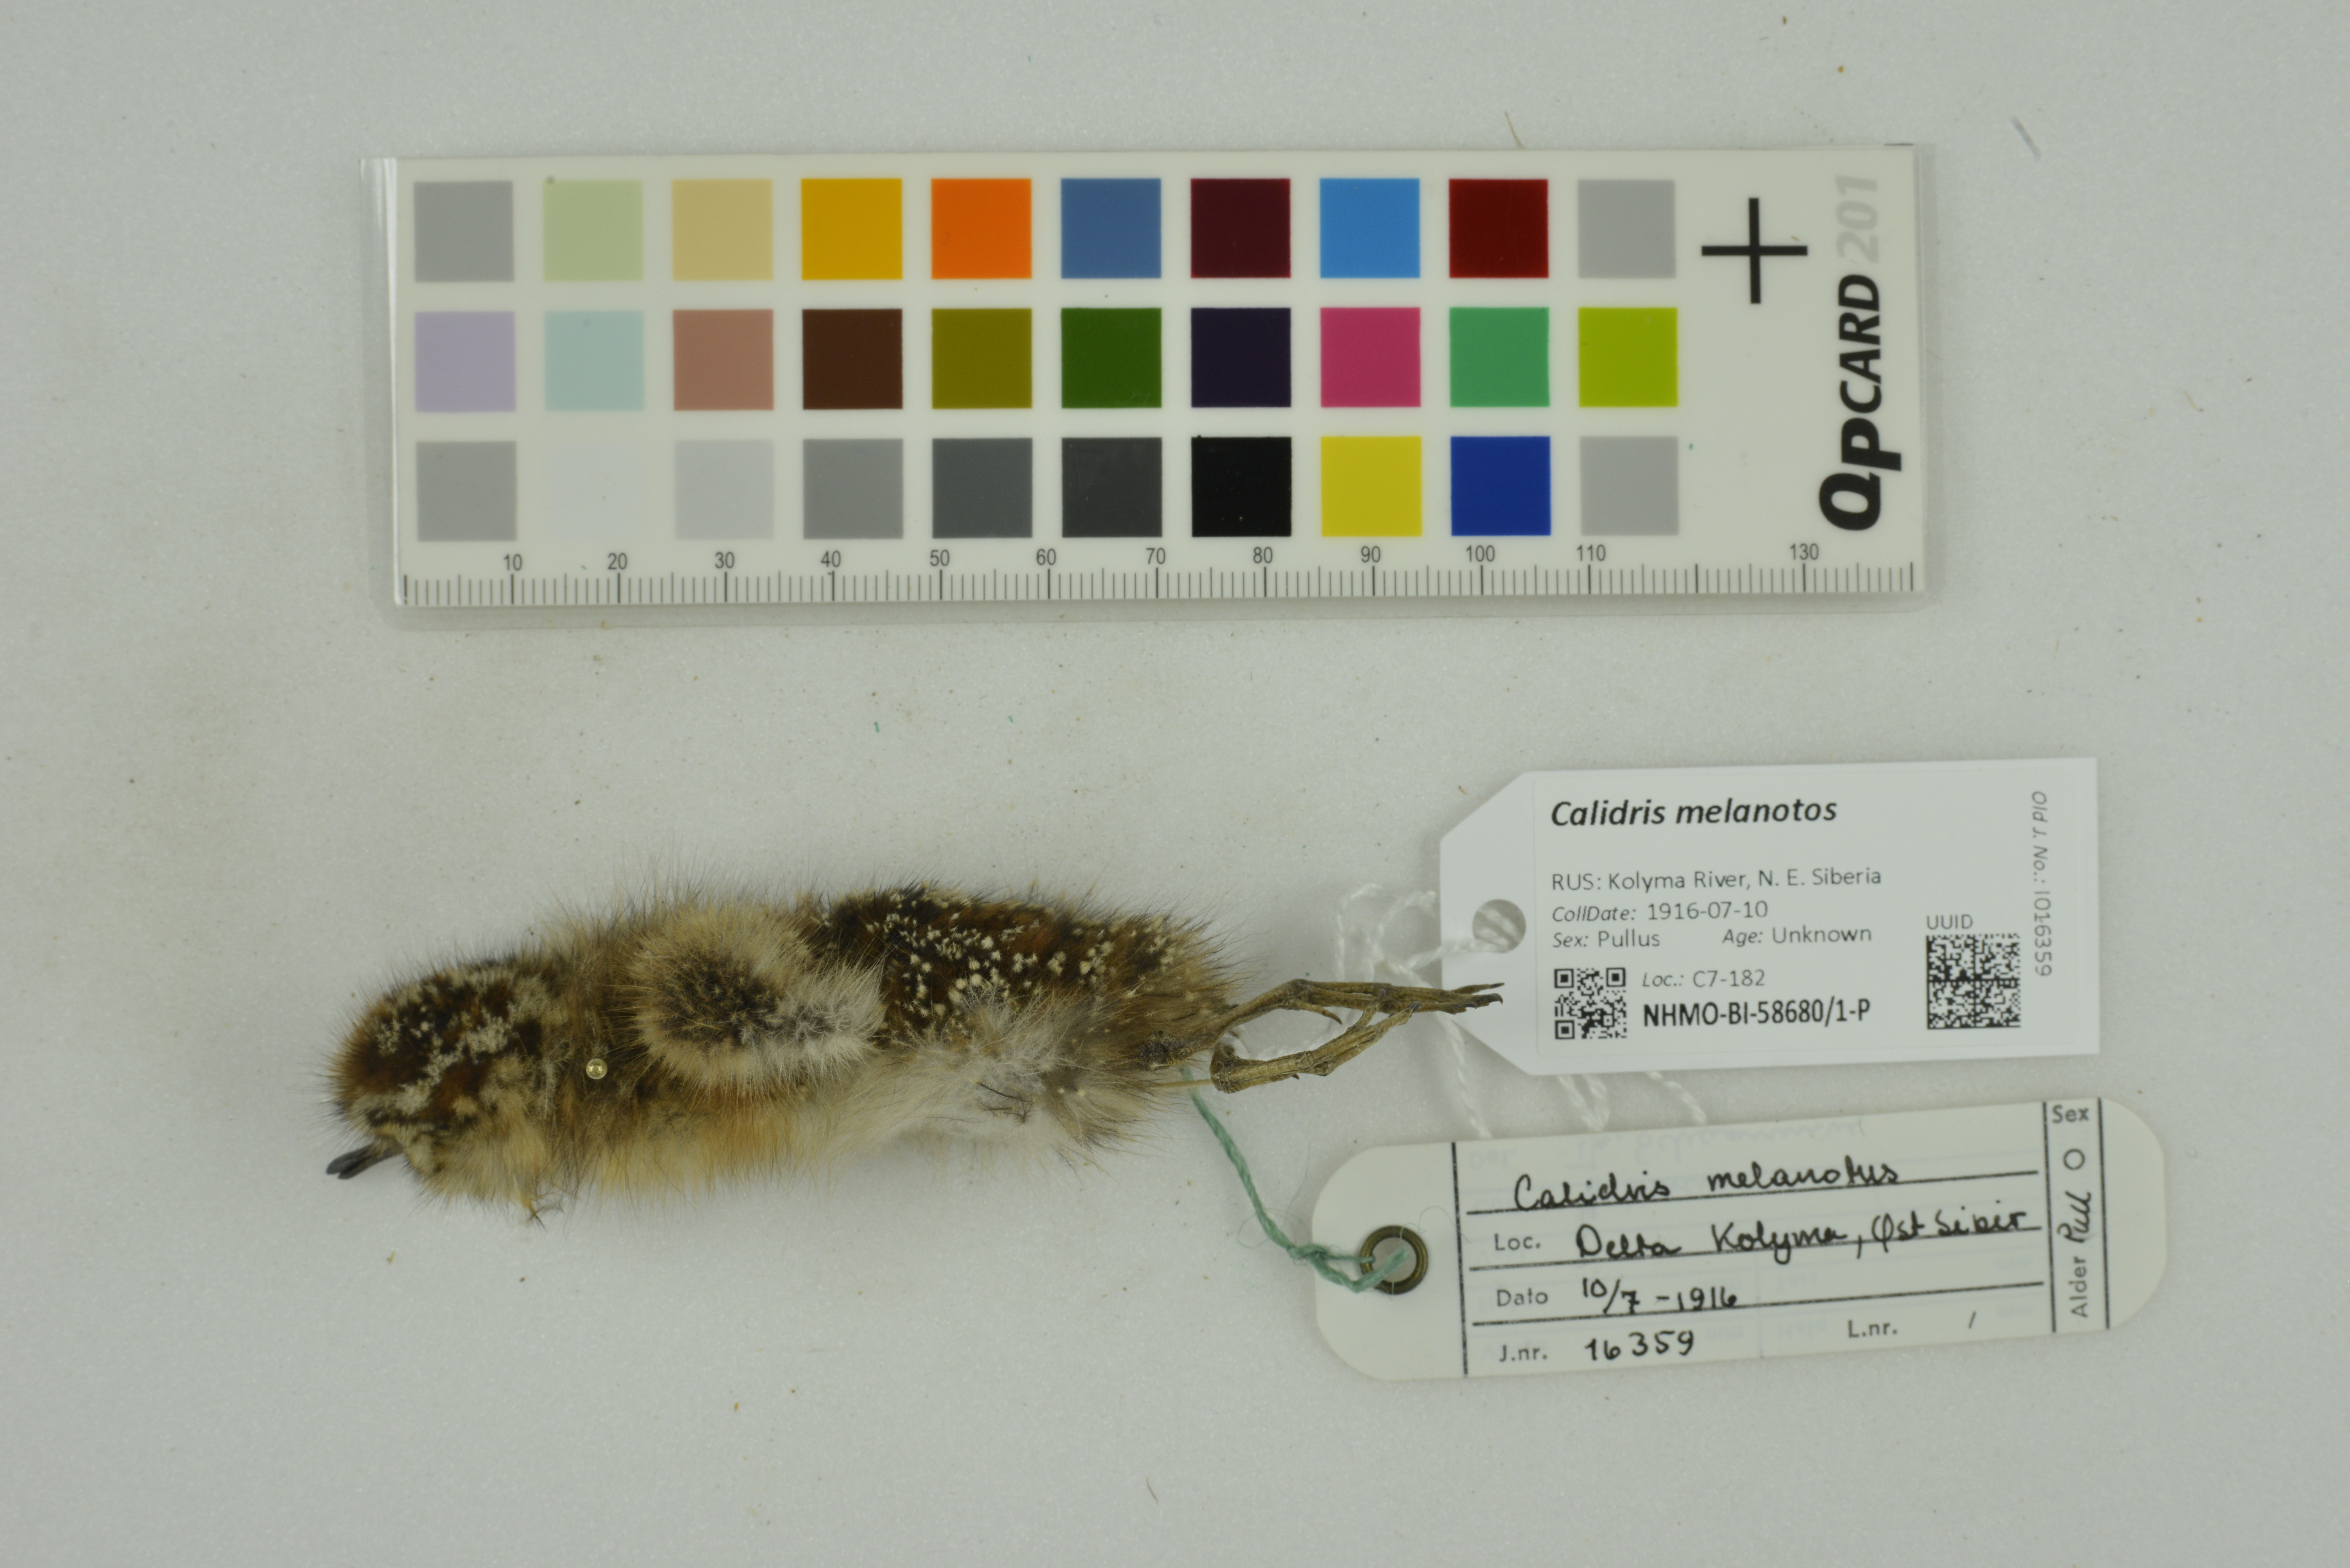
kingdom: Animalia
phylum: Chordata
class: Aves
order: Charadriiformes
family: Scolopacidae
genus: Calidris
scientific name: Calidris melanotos
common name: Pectoral sandpiper
